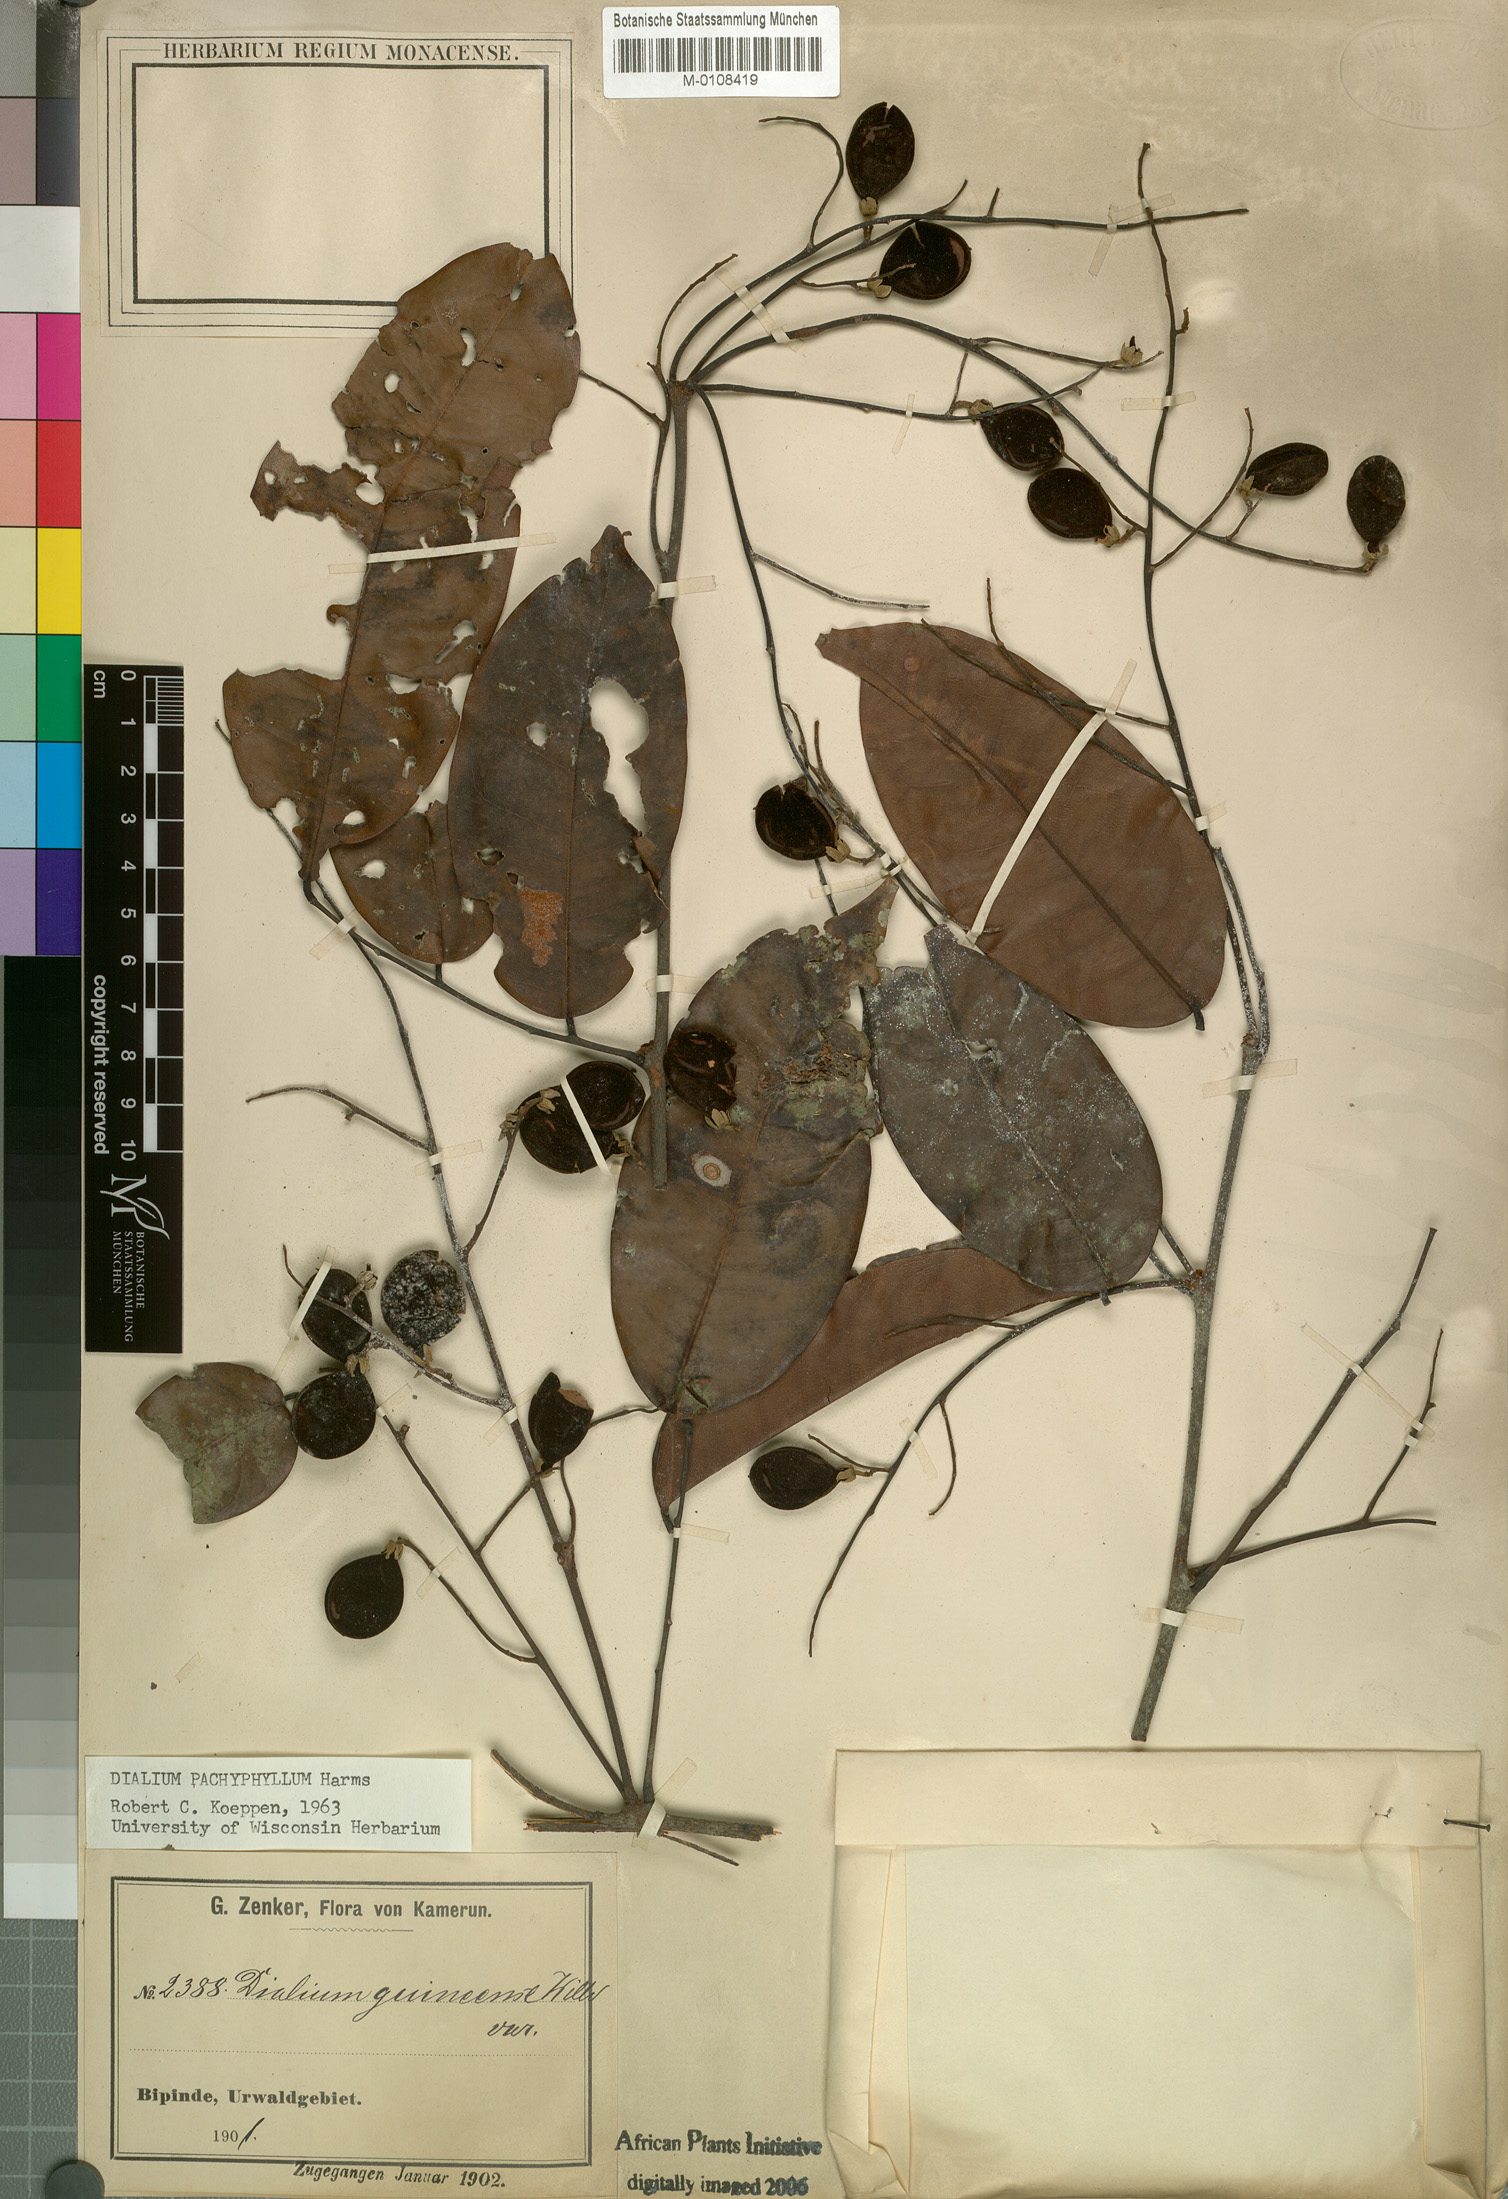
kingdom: Plantae
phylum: Tracheophyta
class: Magnoliopsida
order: Fabales
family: Fabaceae
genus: Dialium
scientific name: Dialium pachyphyllum
